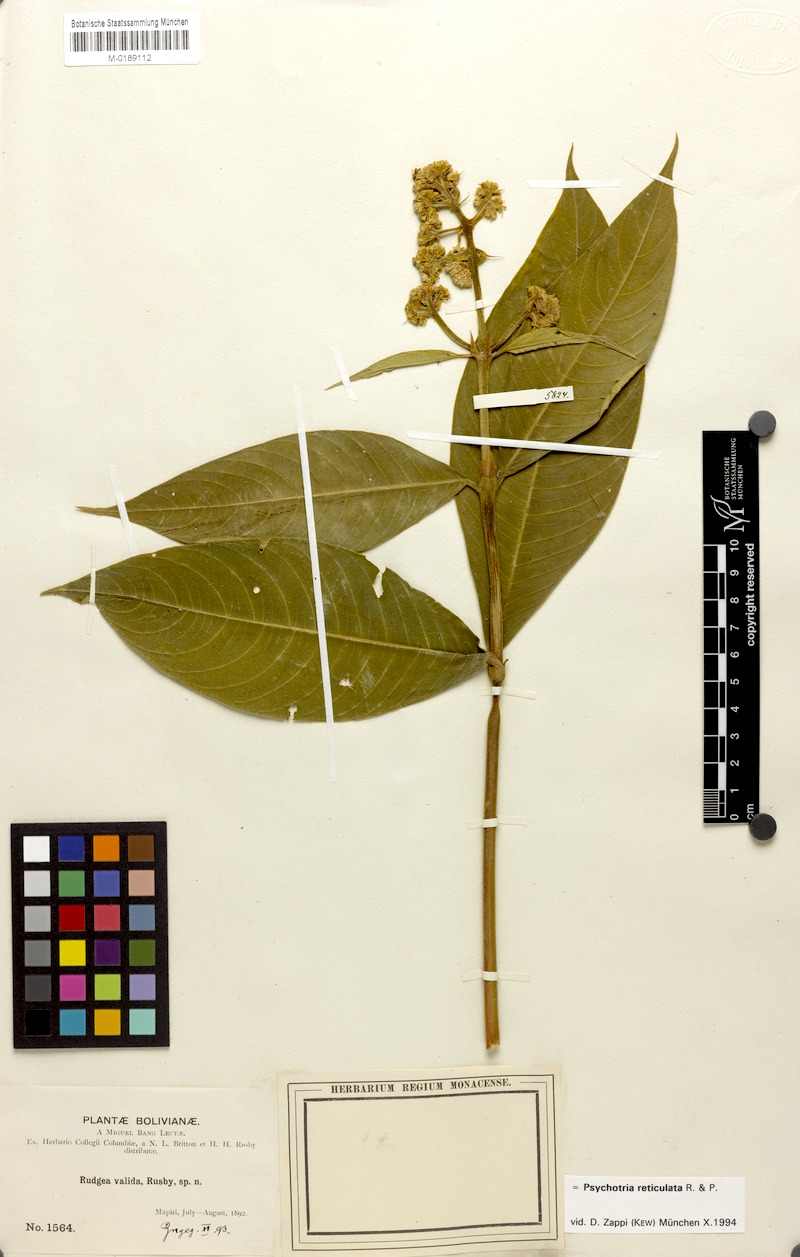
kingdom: Plantae
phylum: Tracheophyta
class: Magnoliopsida
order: Gentianales
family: Rubiaceae
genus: Palicourea
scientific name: Palicourea reticulata
